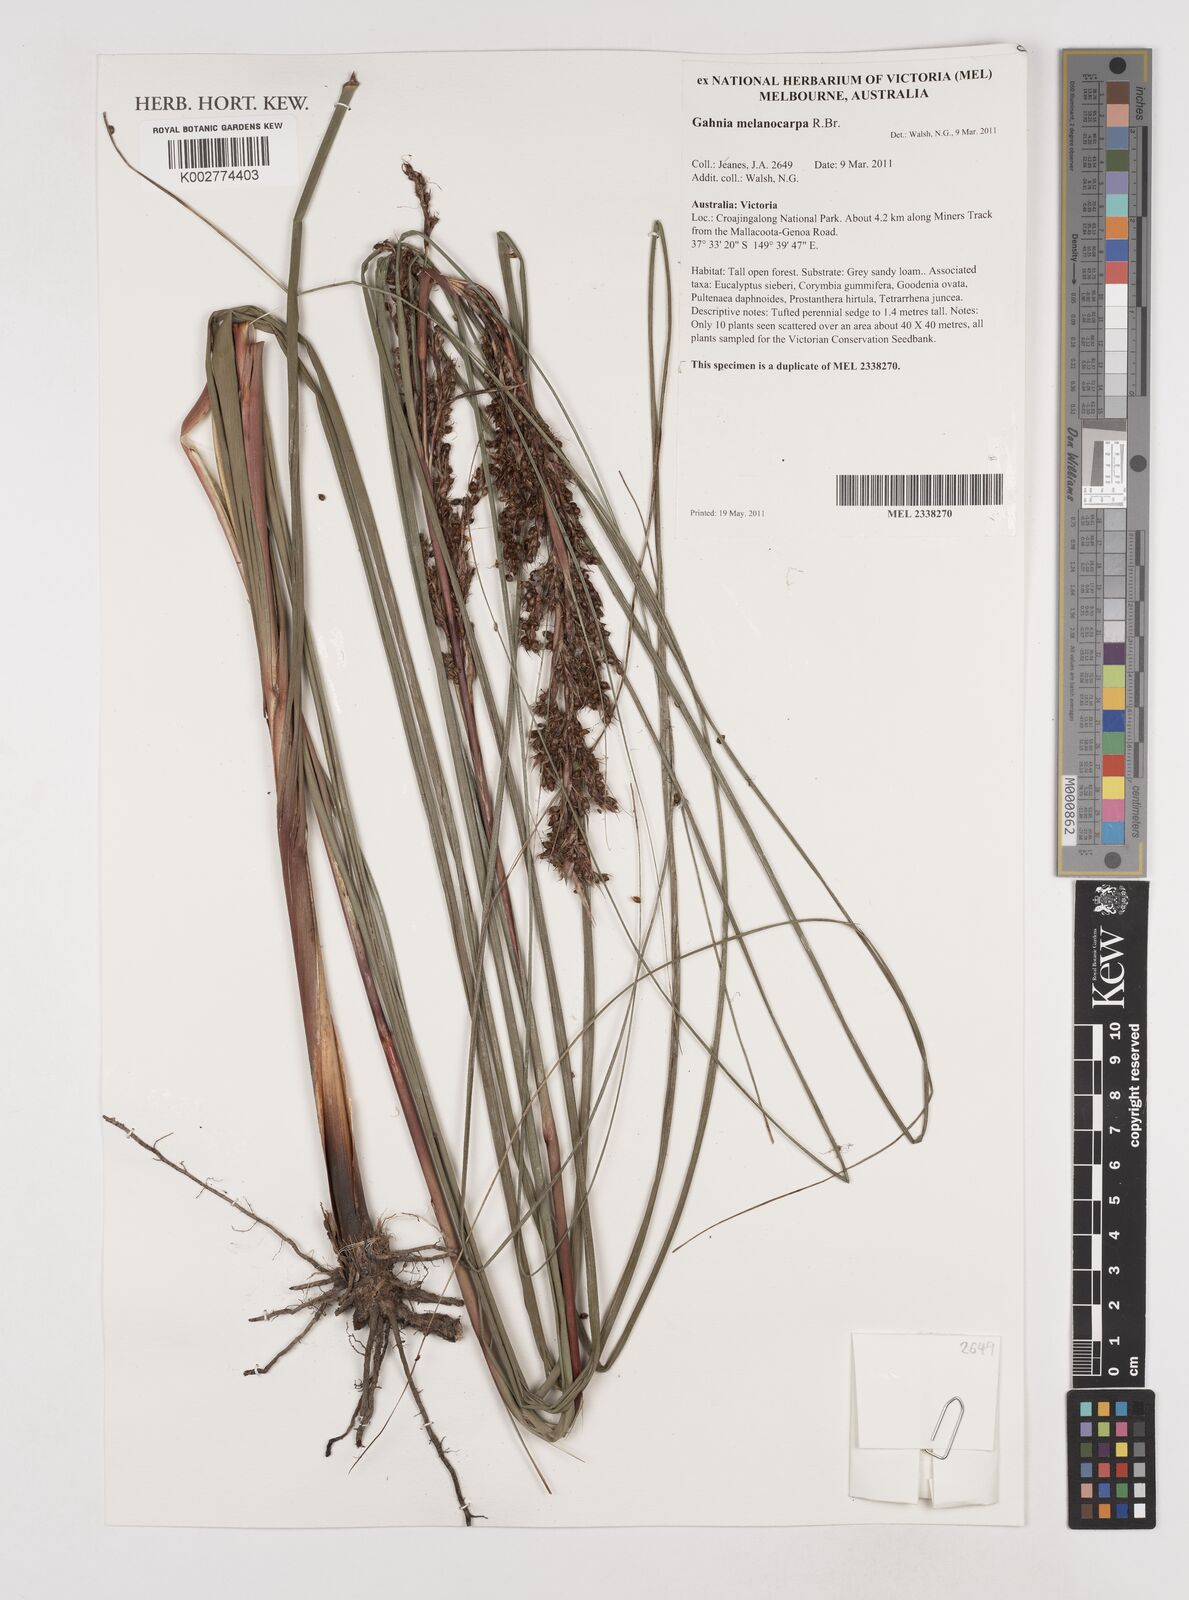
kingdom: Plantae
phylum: Tracheophyta
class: Liliopsida
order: Poales
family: Cyperaceae
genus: Gahnia
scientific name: Gahnia melanocarpa
